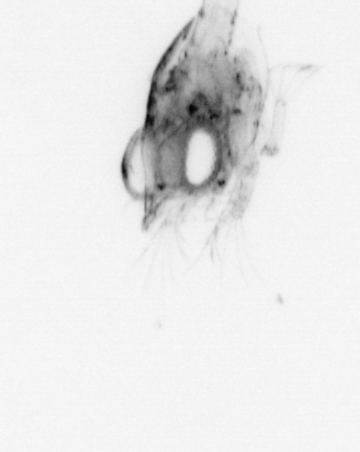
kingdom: Animalia
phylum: Arthropoda
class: Malacostraca
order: Decapoda
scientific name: Decapoda
